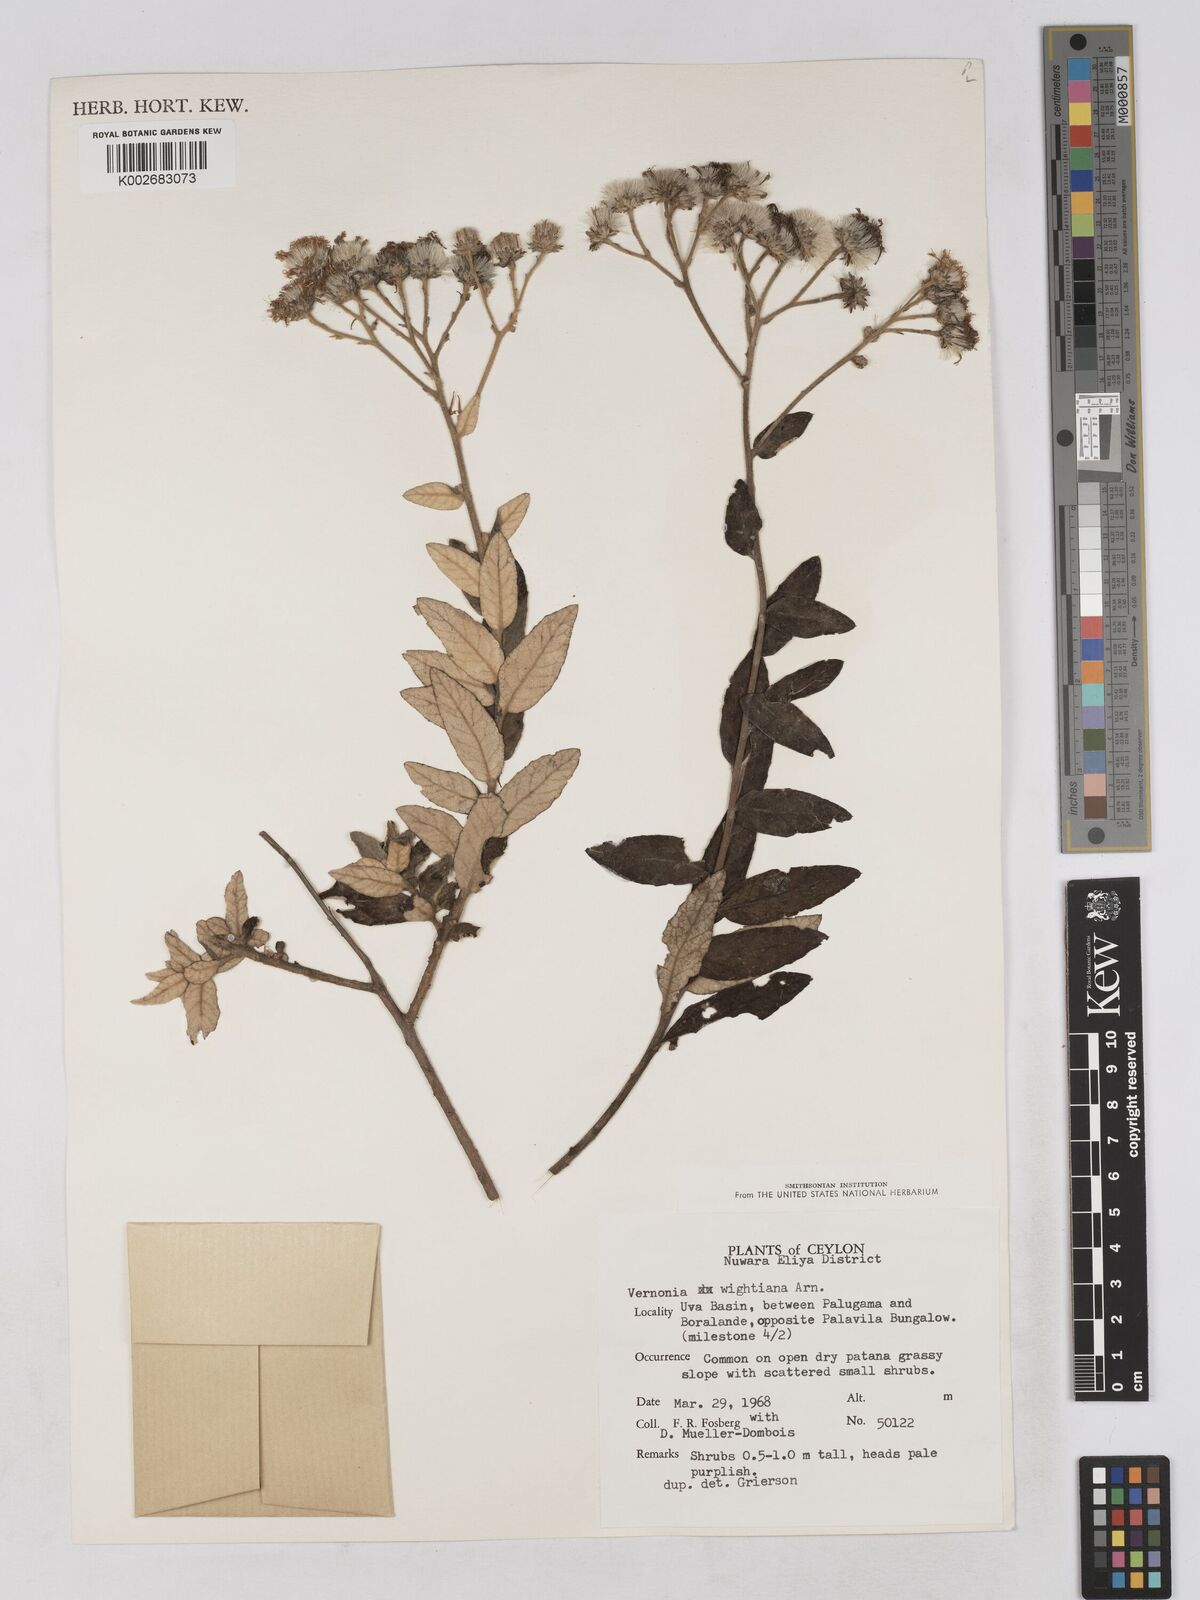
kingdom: Plantae
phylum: Tracheophyta
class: Magnoliopsida
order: Asterales
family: Asteraceae
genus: Uniyala
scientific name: Uniyala wightiana
